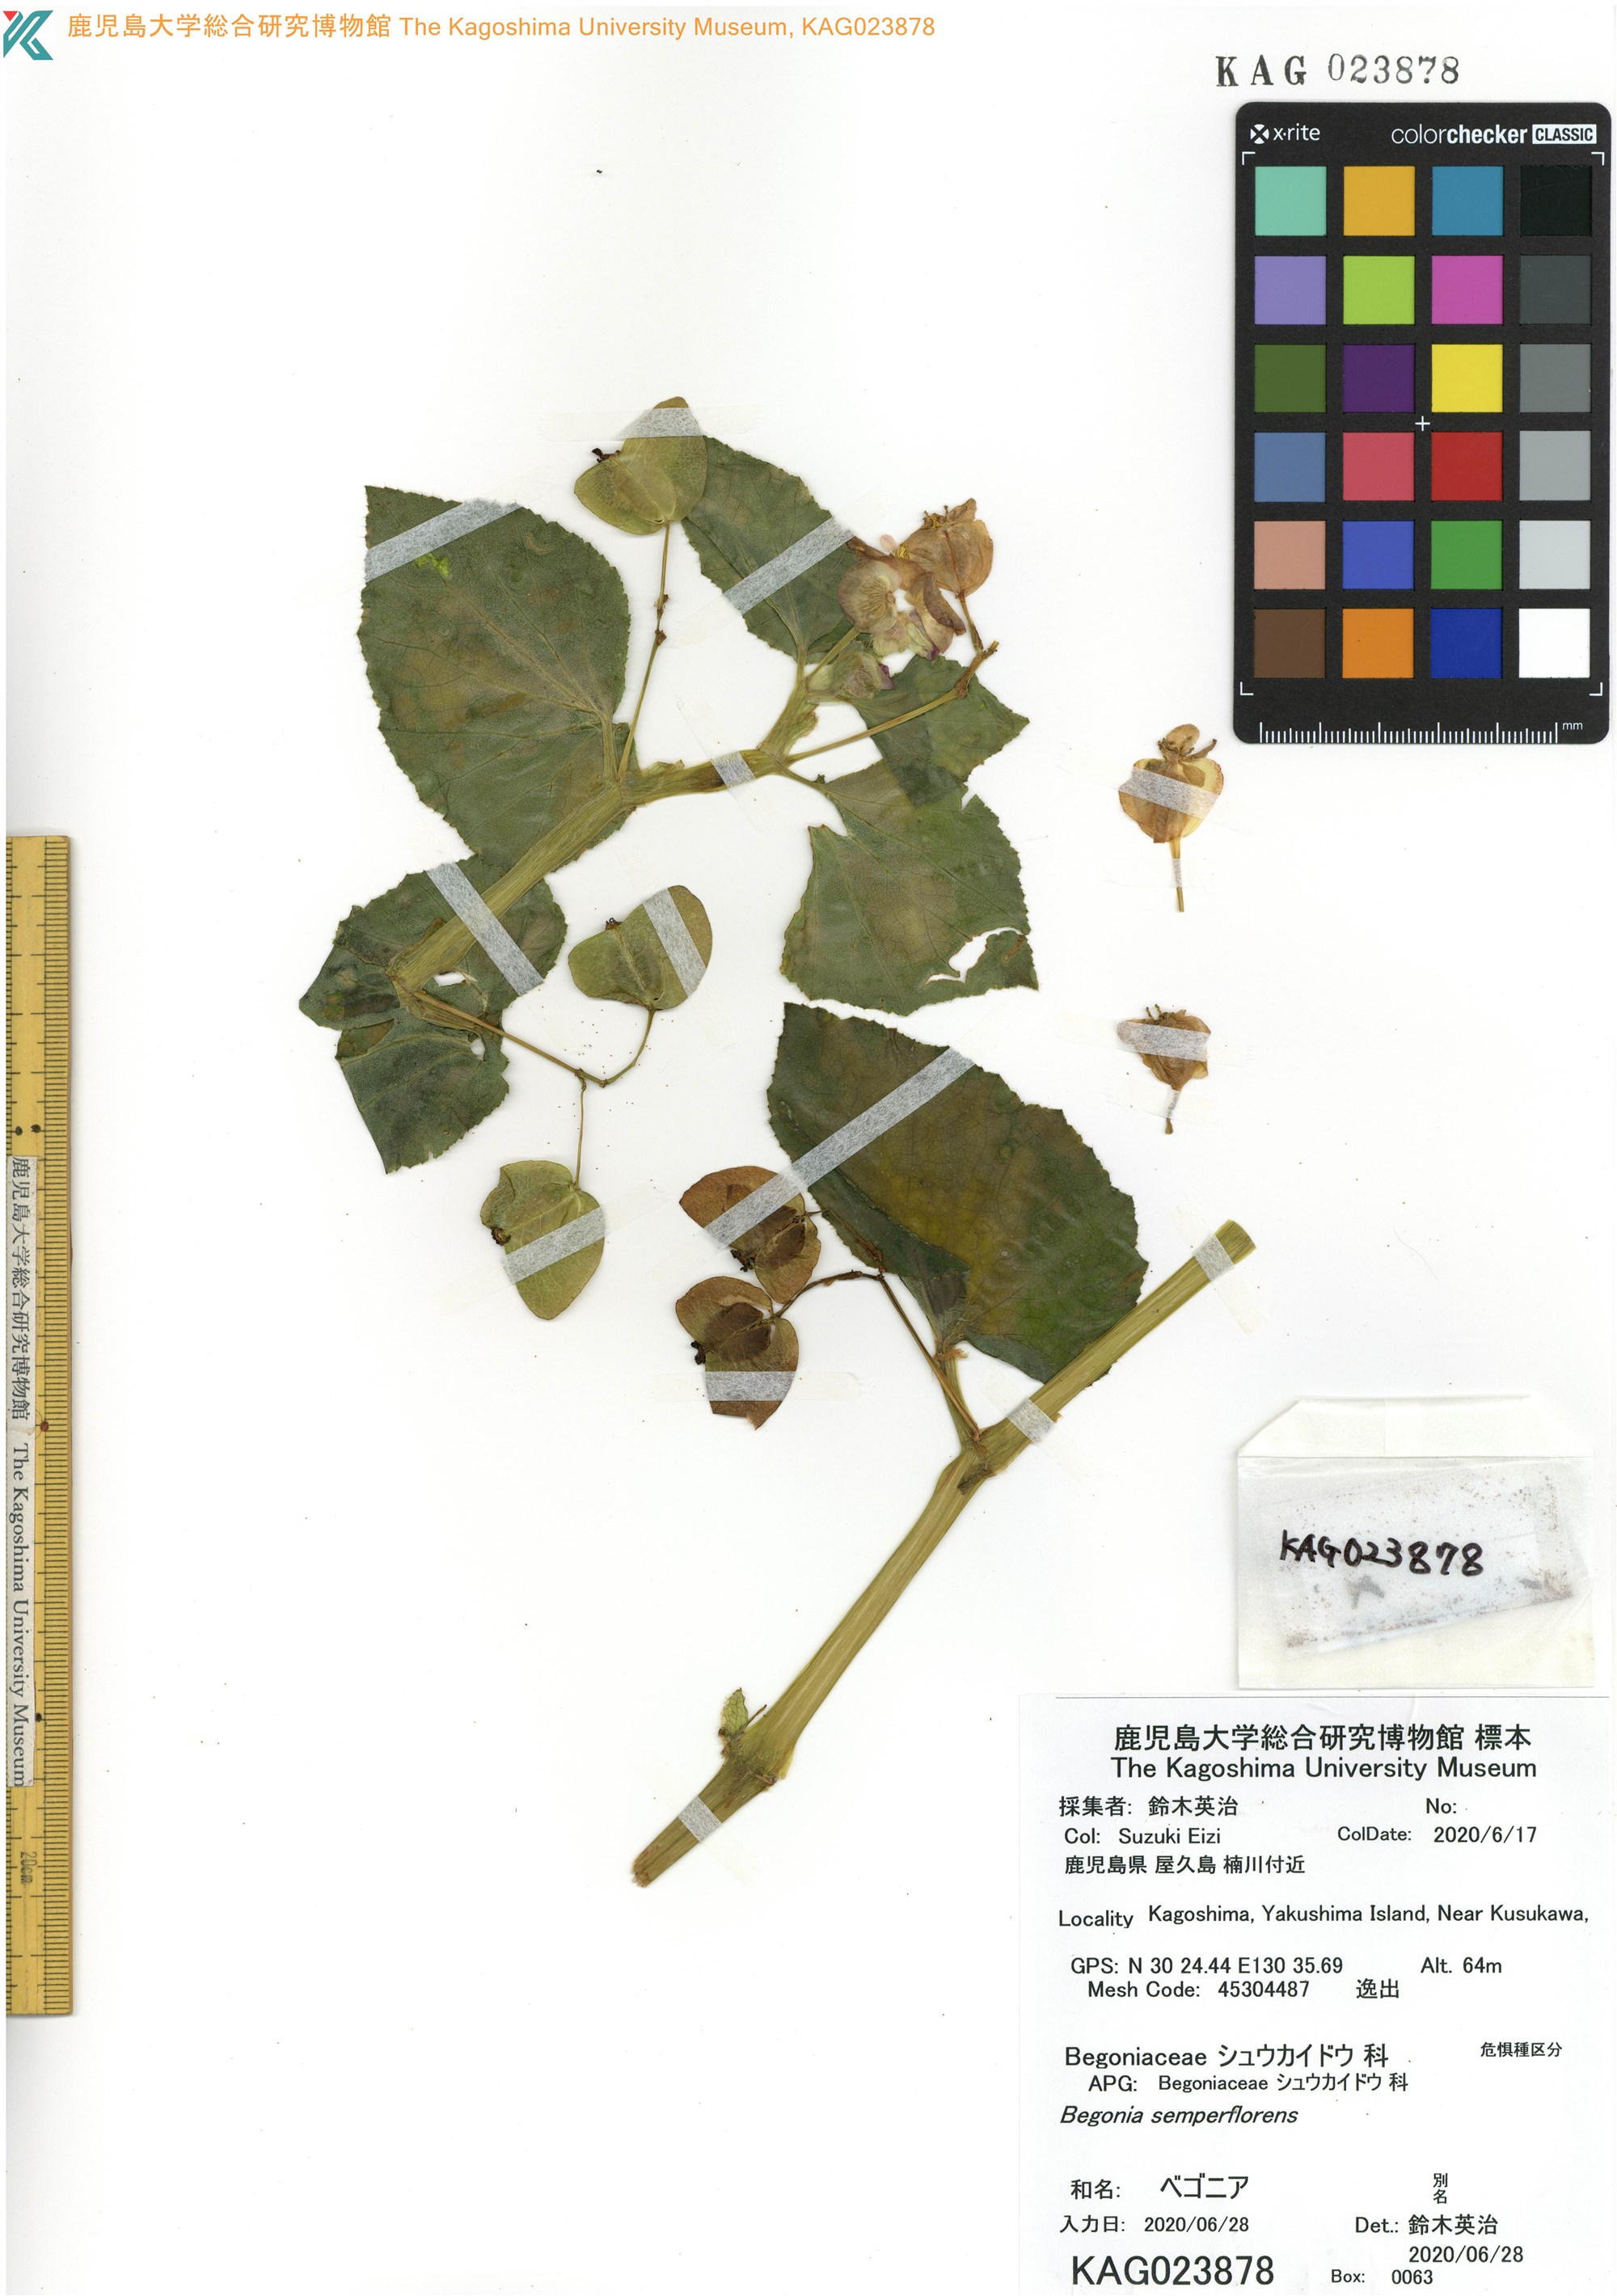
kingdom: Plantae
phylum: Tracheophyta
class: Magnoliopsida
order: Cucurbitales
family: Begoniaceae
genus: Begonia
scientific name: Begonia grandis
